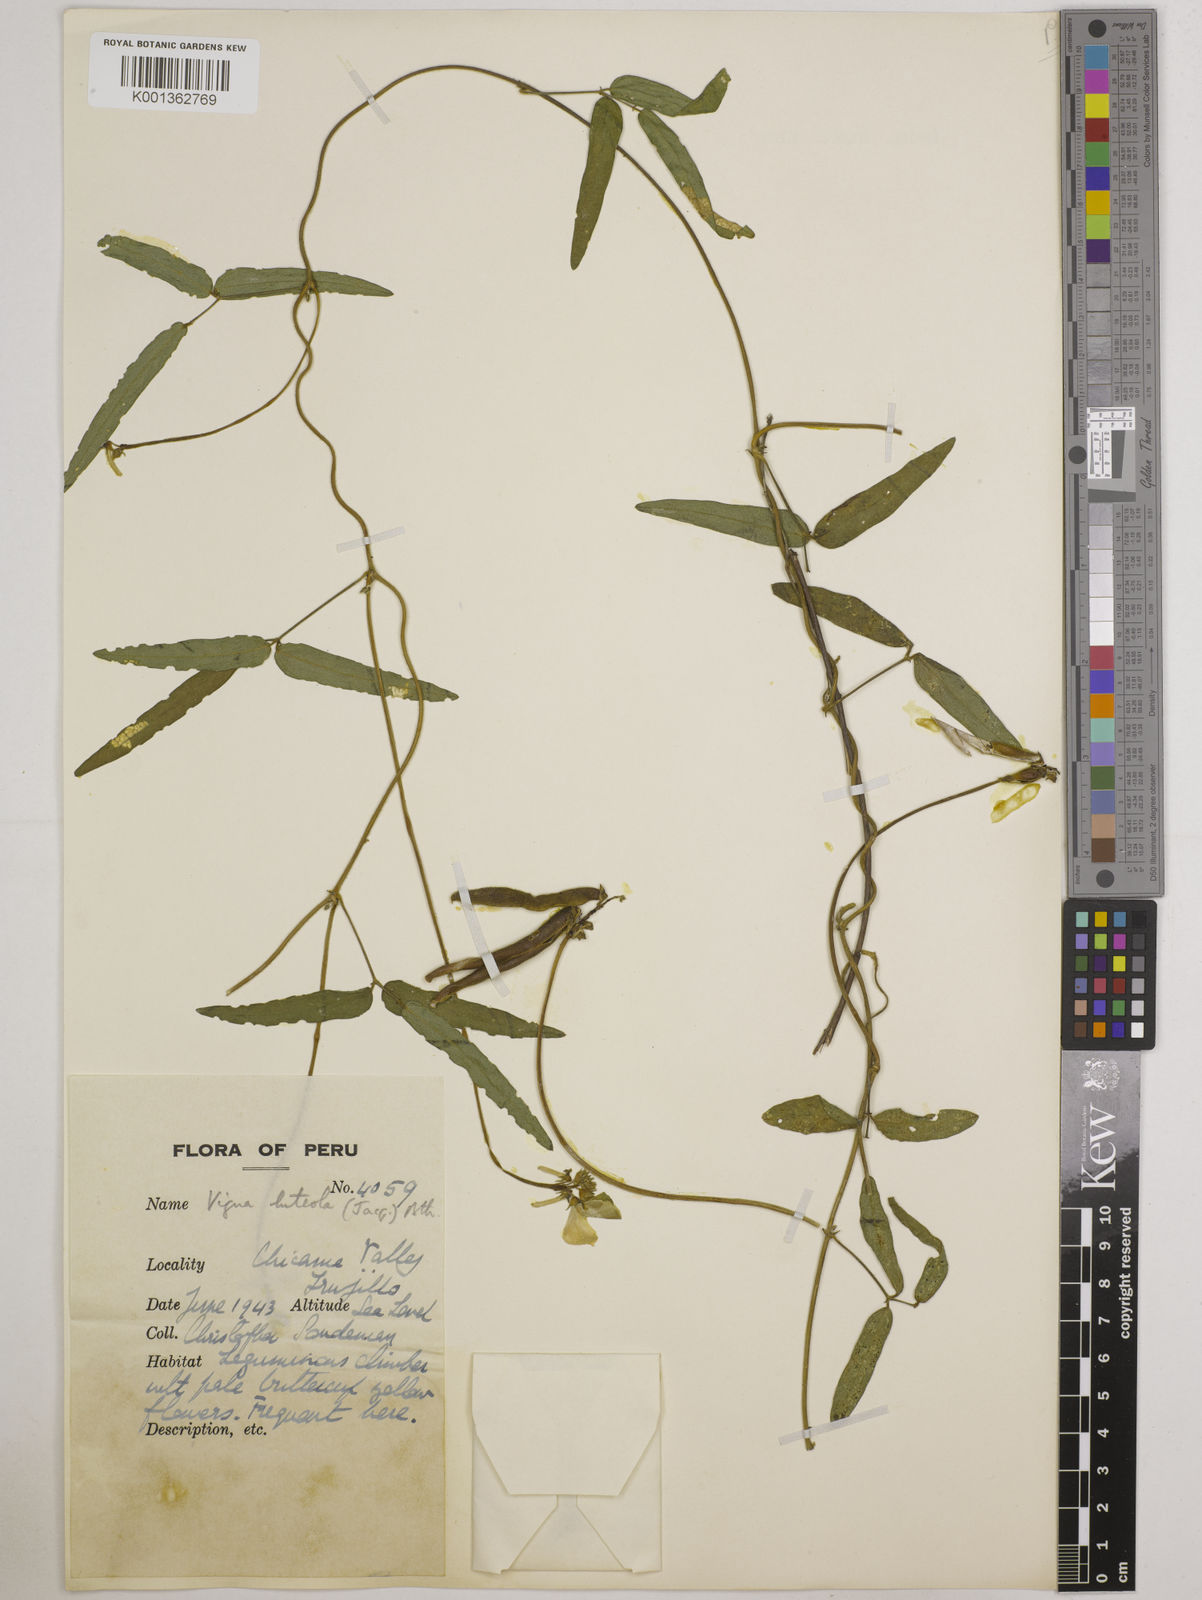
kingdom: Plantae
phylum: Tracheophyta
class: Magnoliopsida
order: Fabales
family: Fabaceae
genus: Vigna
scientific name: Vigna luteola
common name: Hairypod cowpea
